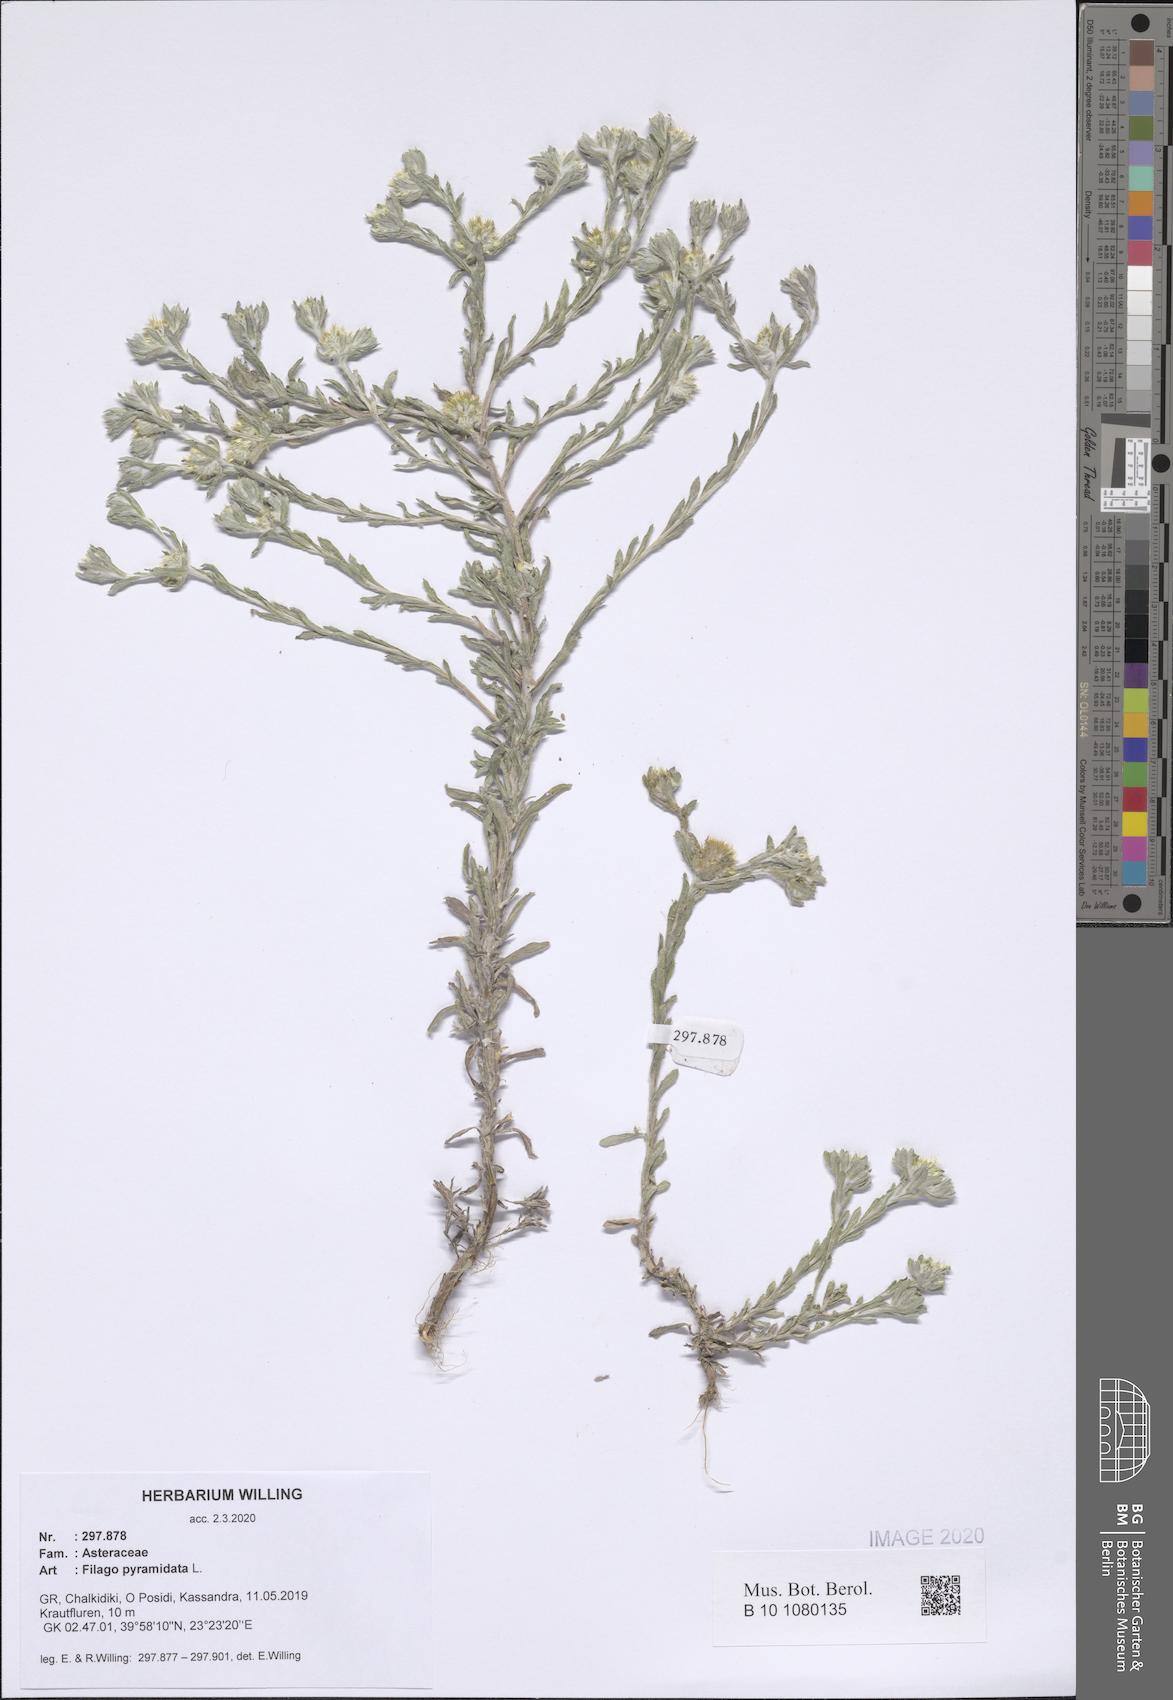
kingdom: Plantae
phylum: Tracheophyta
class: Magnoliopsida
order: Asterales
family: Asteraceae
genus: Filago
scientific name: Filago pyramidata
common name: Broad-leaved cudweed
